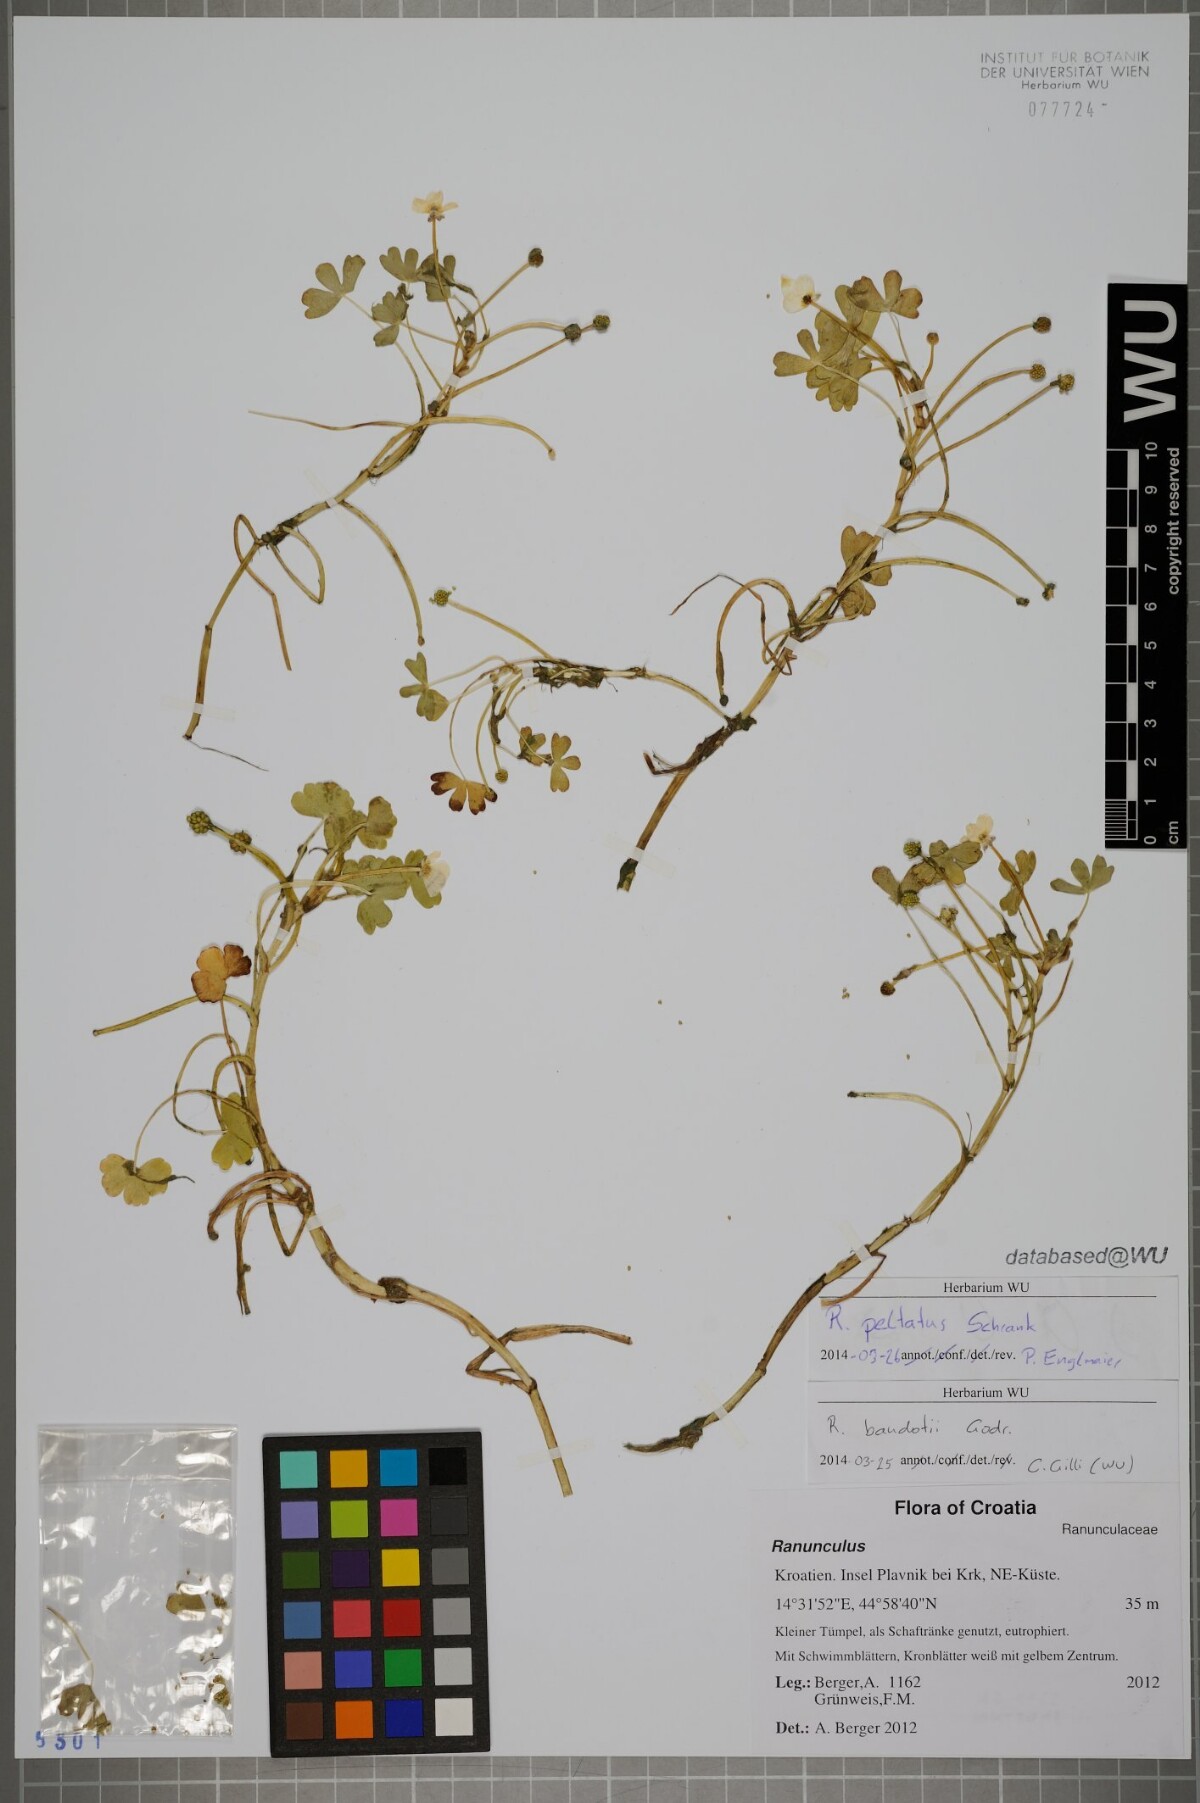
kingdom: Plantae
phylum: Tracheophyta
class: Magnoliopsida
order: Ranunculales
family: Ranunculaceae
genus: Ranunculus
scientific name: Ranunculus peltatus
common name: Pond water-crowfoot
